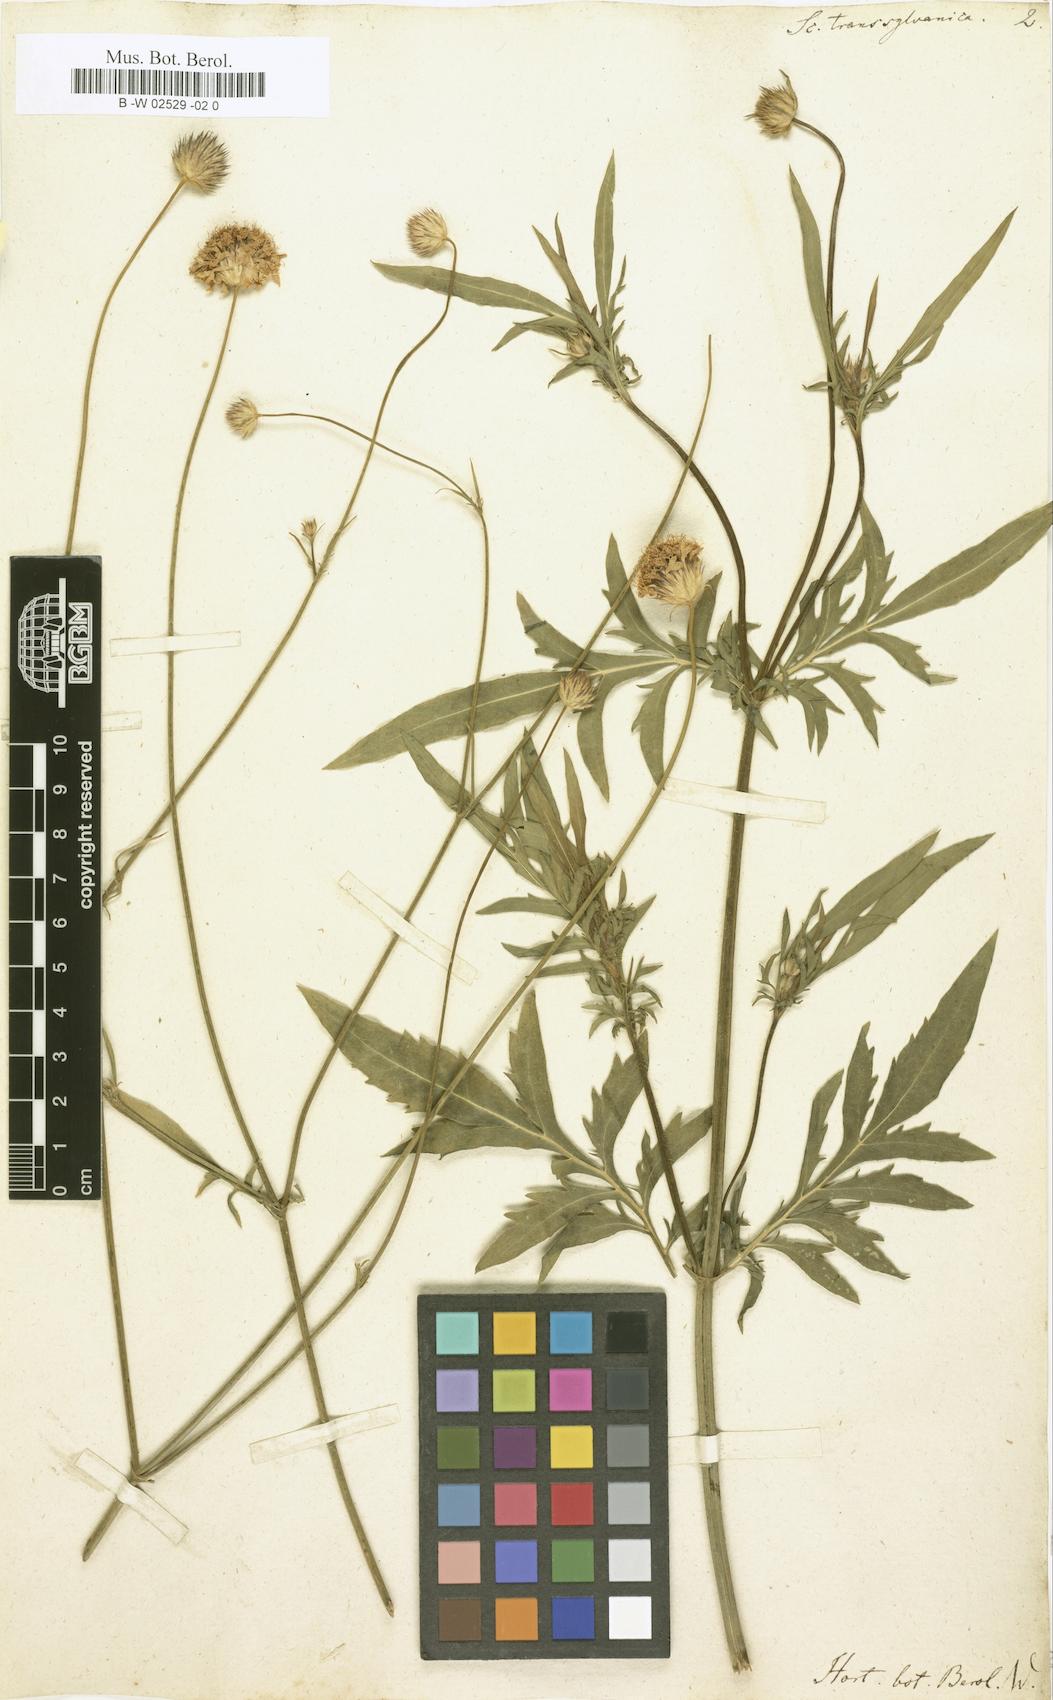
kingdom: Plantae
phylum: Tracheophyta
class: Magnoliopsida
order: Dipsacales
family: Caprifoliaceae
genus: Cephalaria
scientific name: Cephalaria
